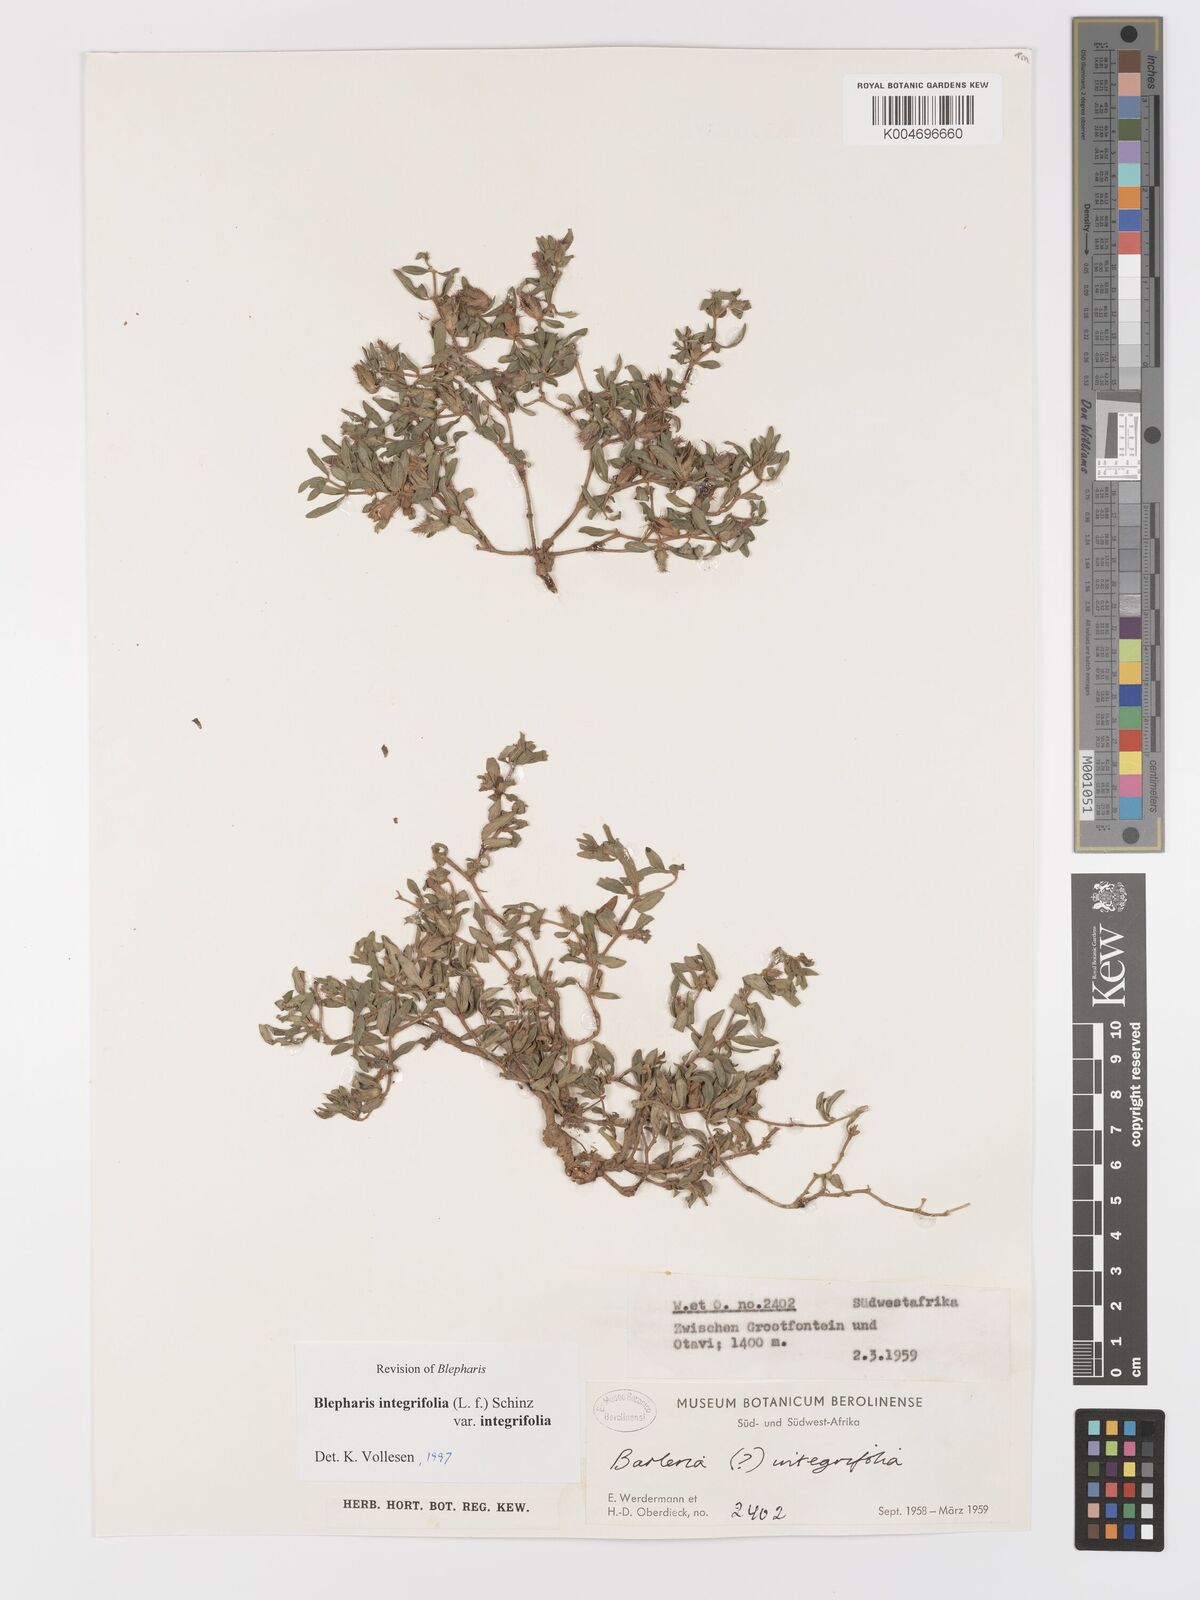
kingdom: Plantae
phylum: Tracheophyta
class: Magnoliopsida
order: Lamiales
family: Acanthaceae
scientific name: Acanthaceae
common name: Acanthaceae
